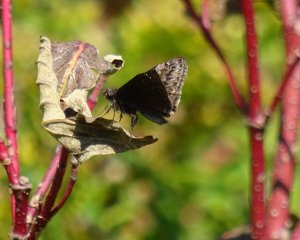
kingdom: Animalia
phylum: Arthropoda
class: Insecta
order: Lepidoptera
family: Hesperiidae
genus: Gesta
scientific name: Gesta
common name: Wild Indigo Duskywing
